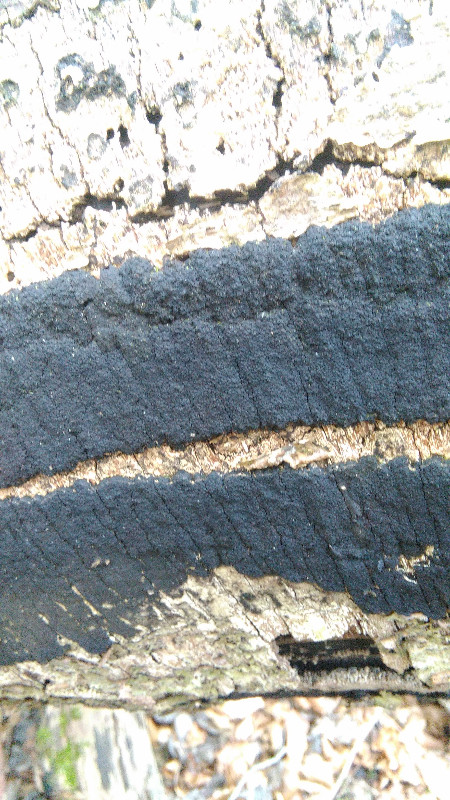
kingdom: Fungi
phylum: Ascomycota
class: Sordariomycetes
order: Xylariales
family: Diatrypaceae
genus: Eutypa
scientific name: Eutypa spinosa
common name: grov kulskorpe
